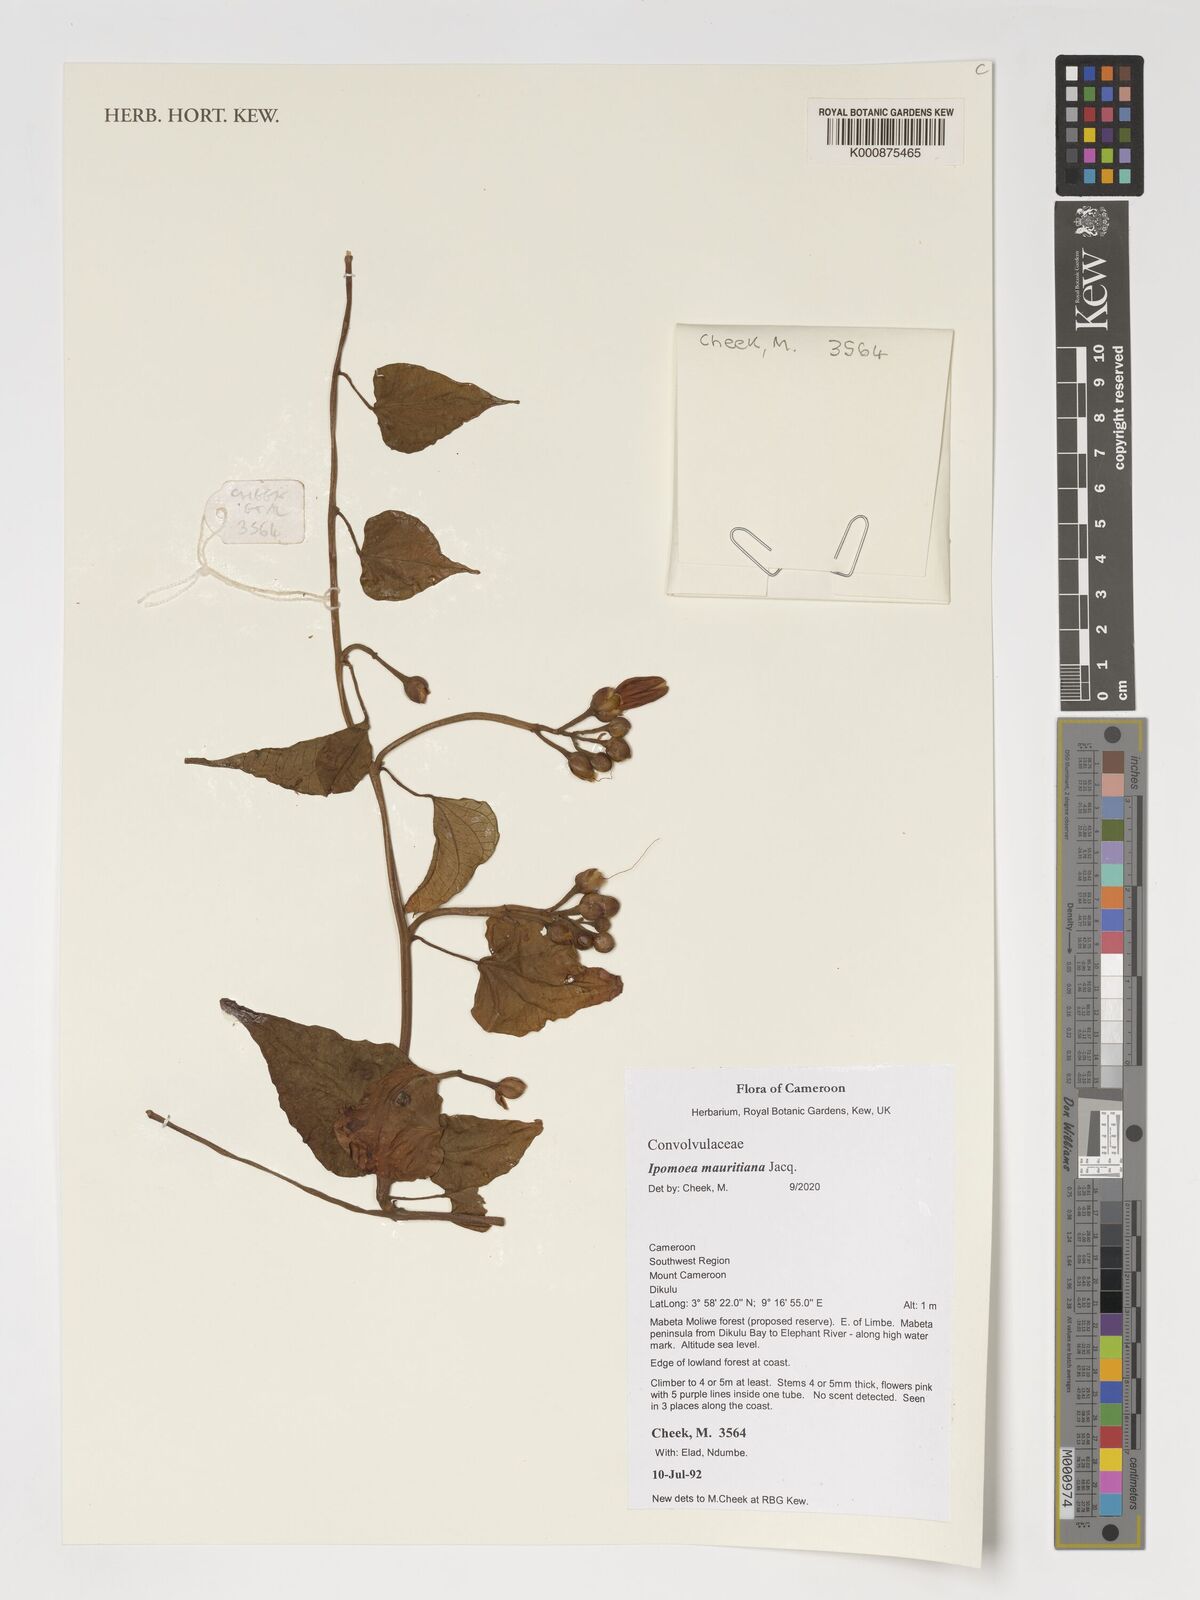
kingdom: Plantae
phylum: Tracheophyta
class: Magnoliopsida
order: Solanales
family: Convolvulaceae
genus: Ipomoea
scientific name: Ipomoea mauritiana
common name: Mauritanian convolvulus
